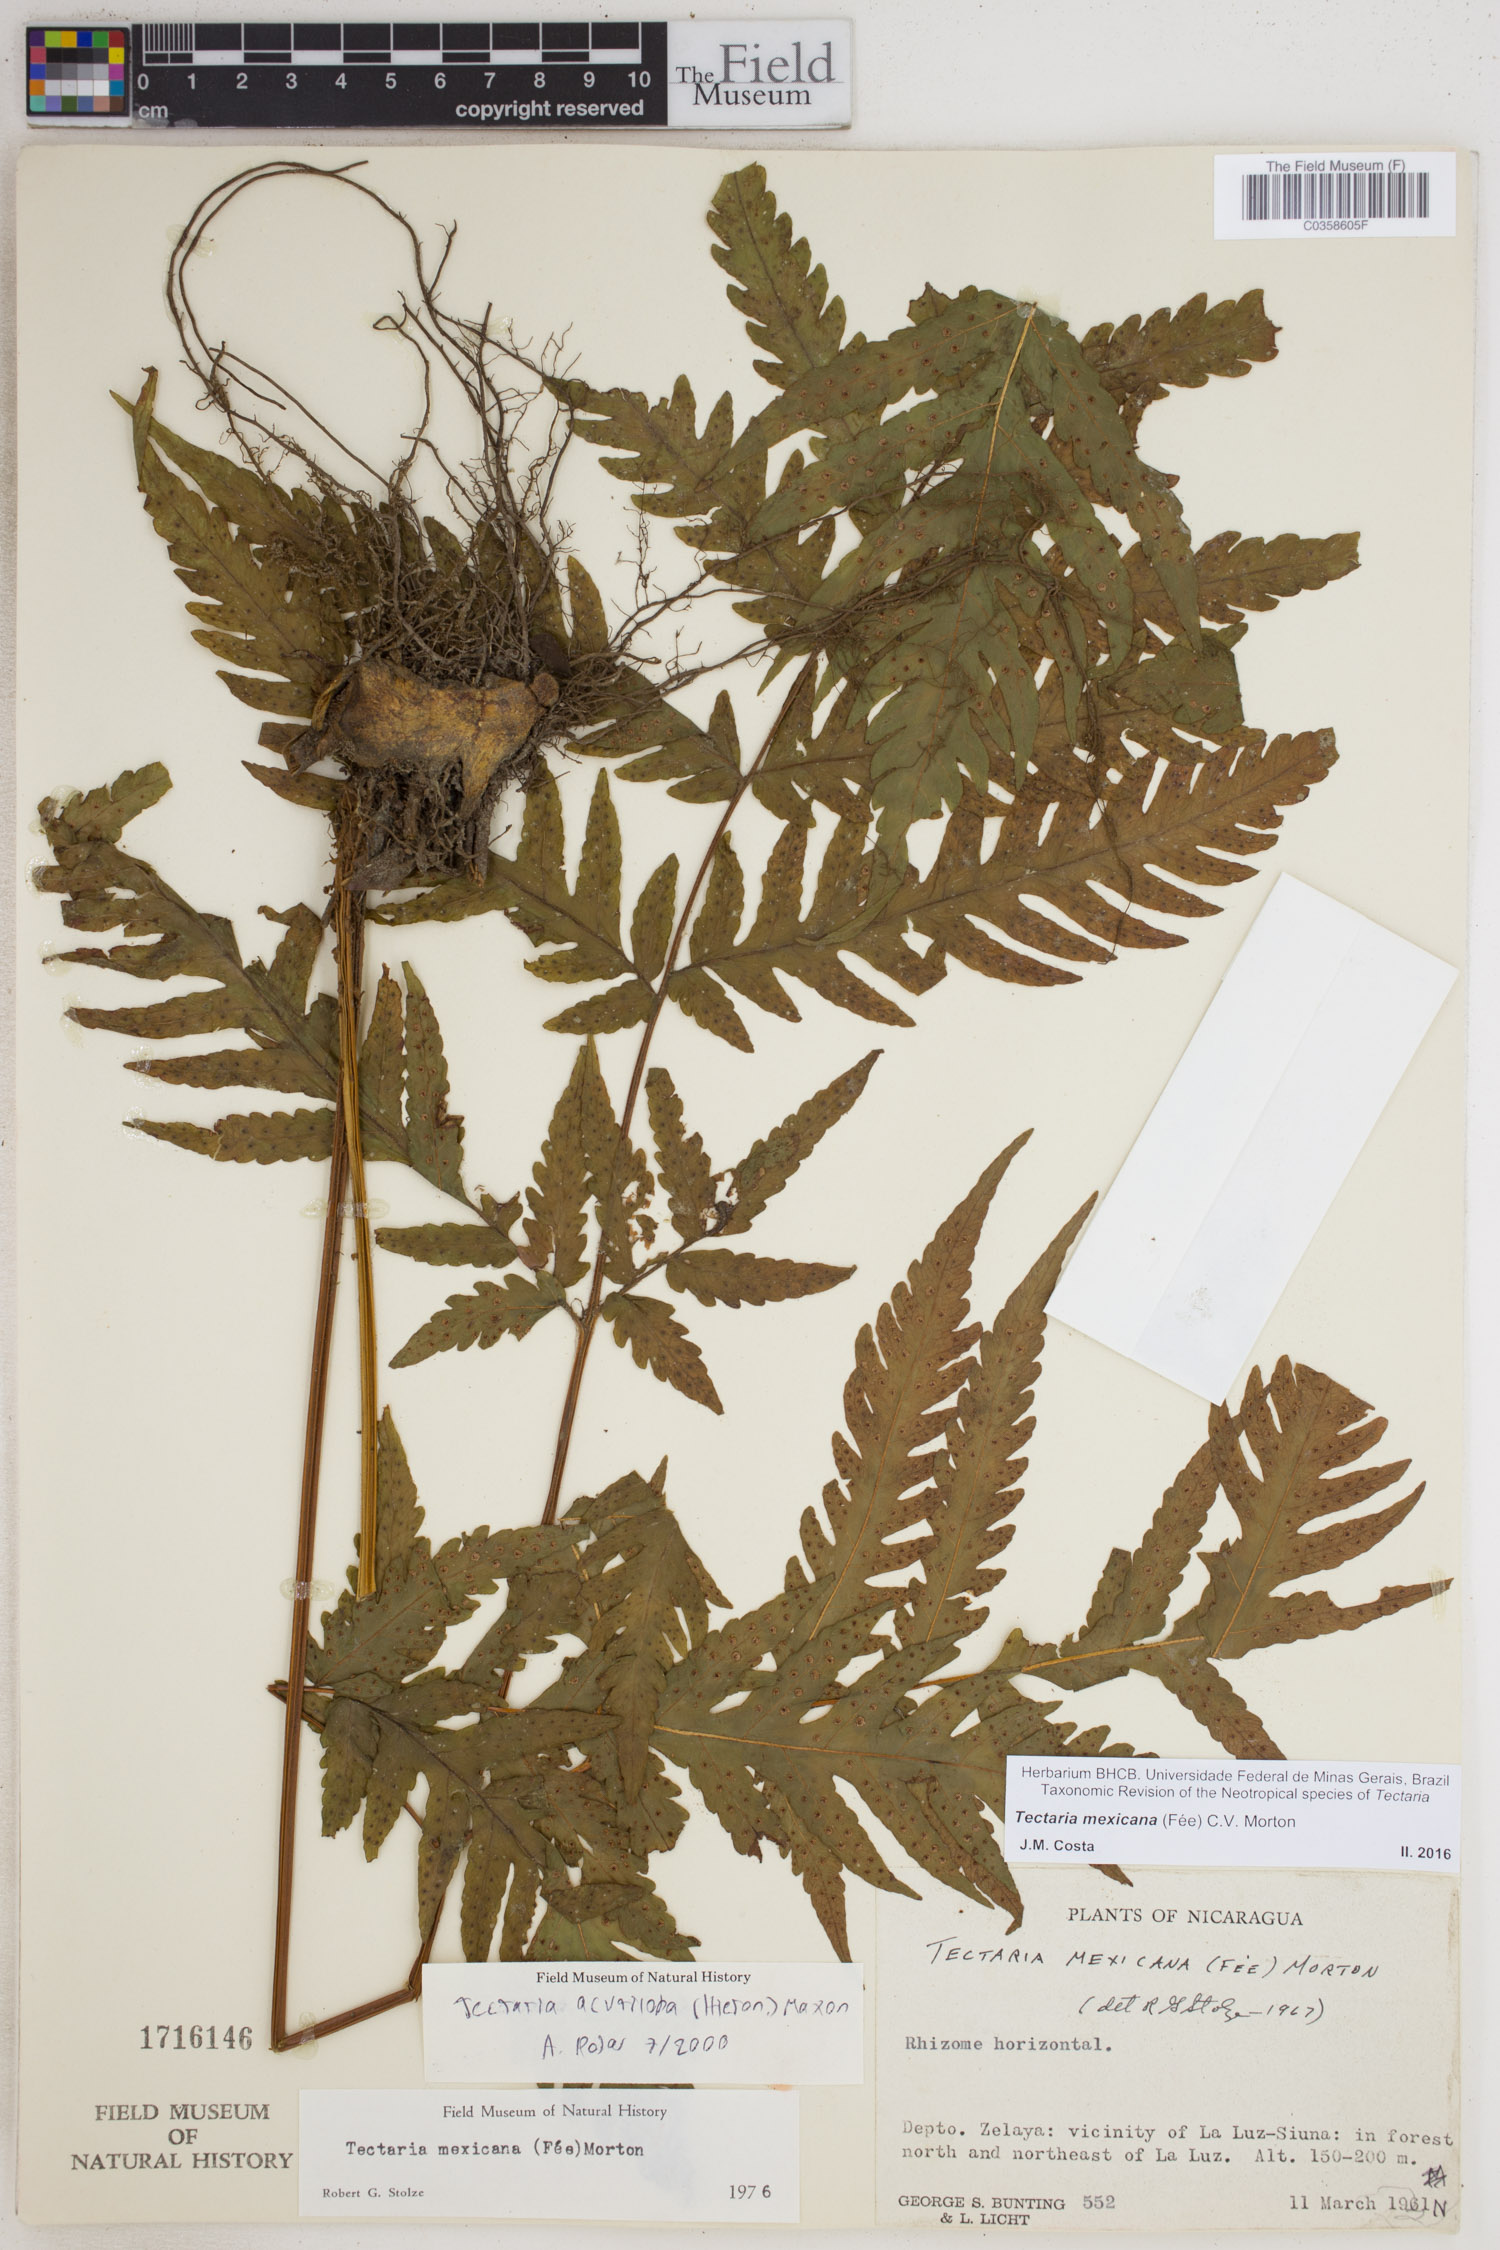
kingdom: Plantae
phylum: Tracheophyta
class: Polypodiopsida
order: Polypodiales
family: Tectariaceae
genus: Tectaria
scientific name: Tectaria mexicana
